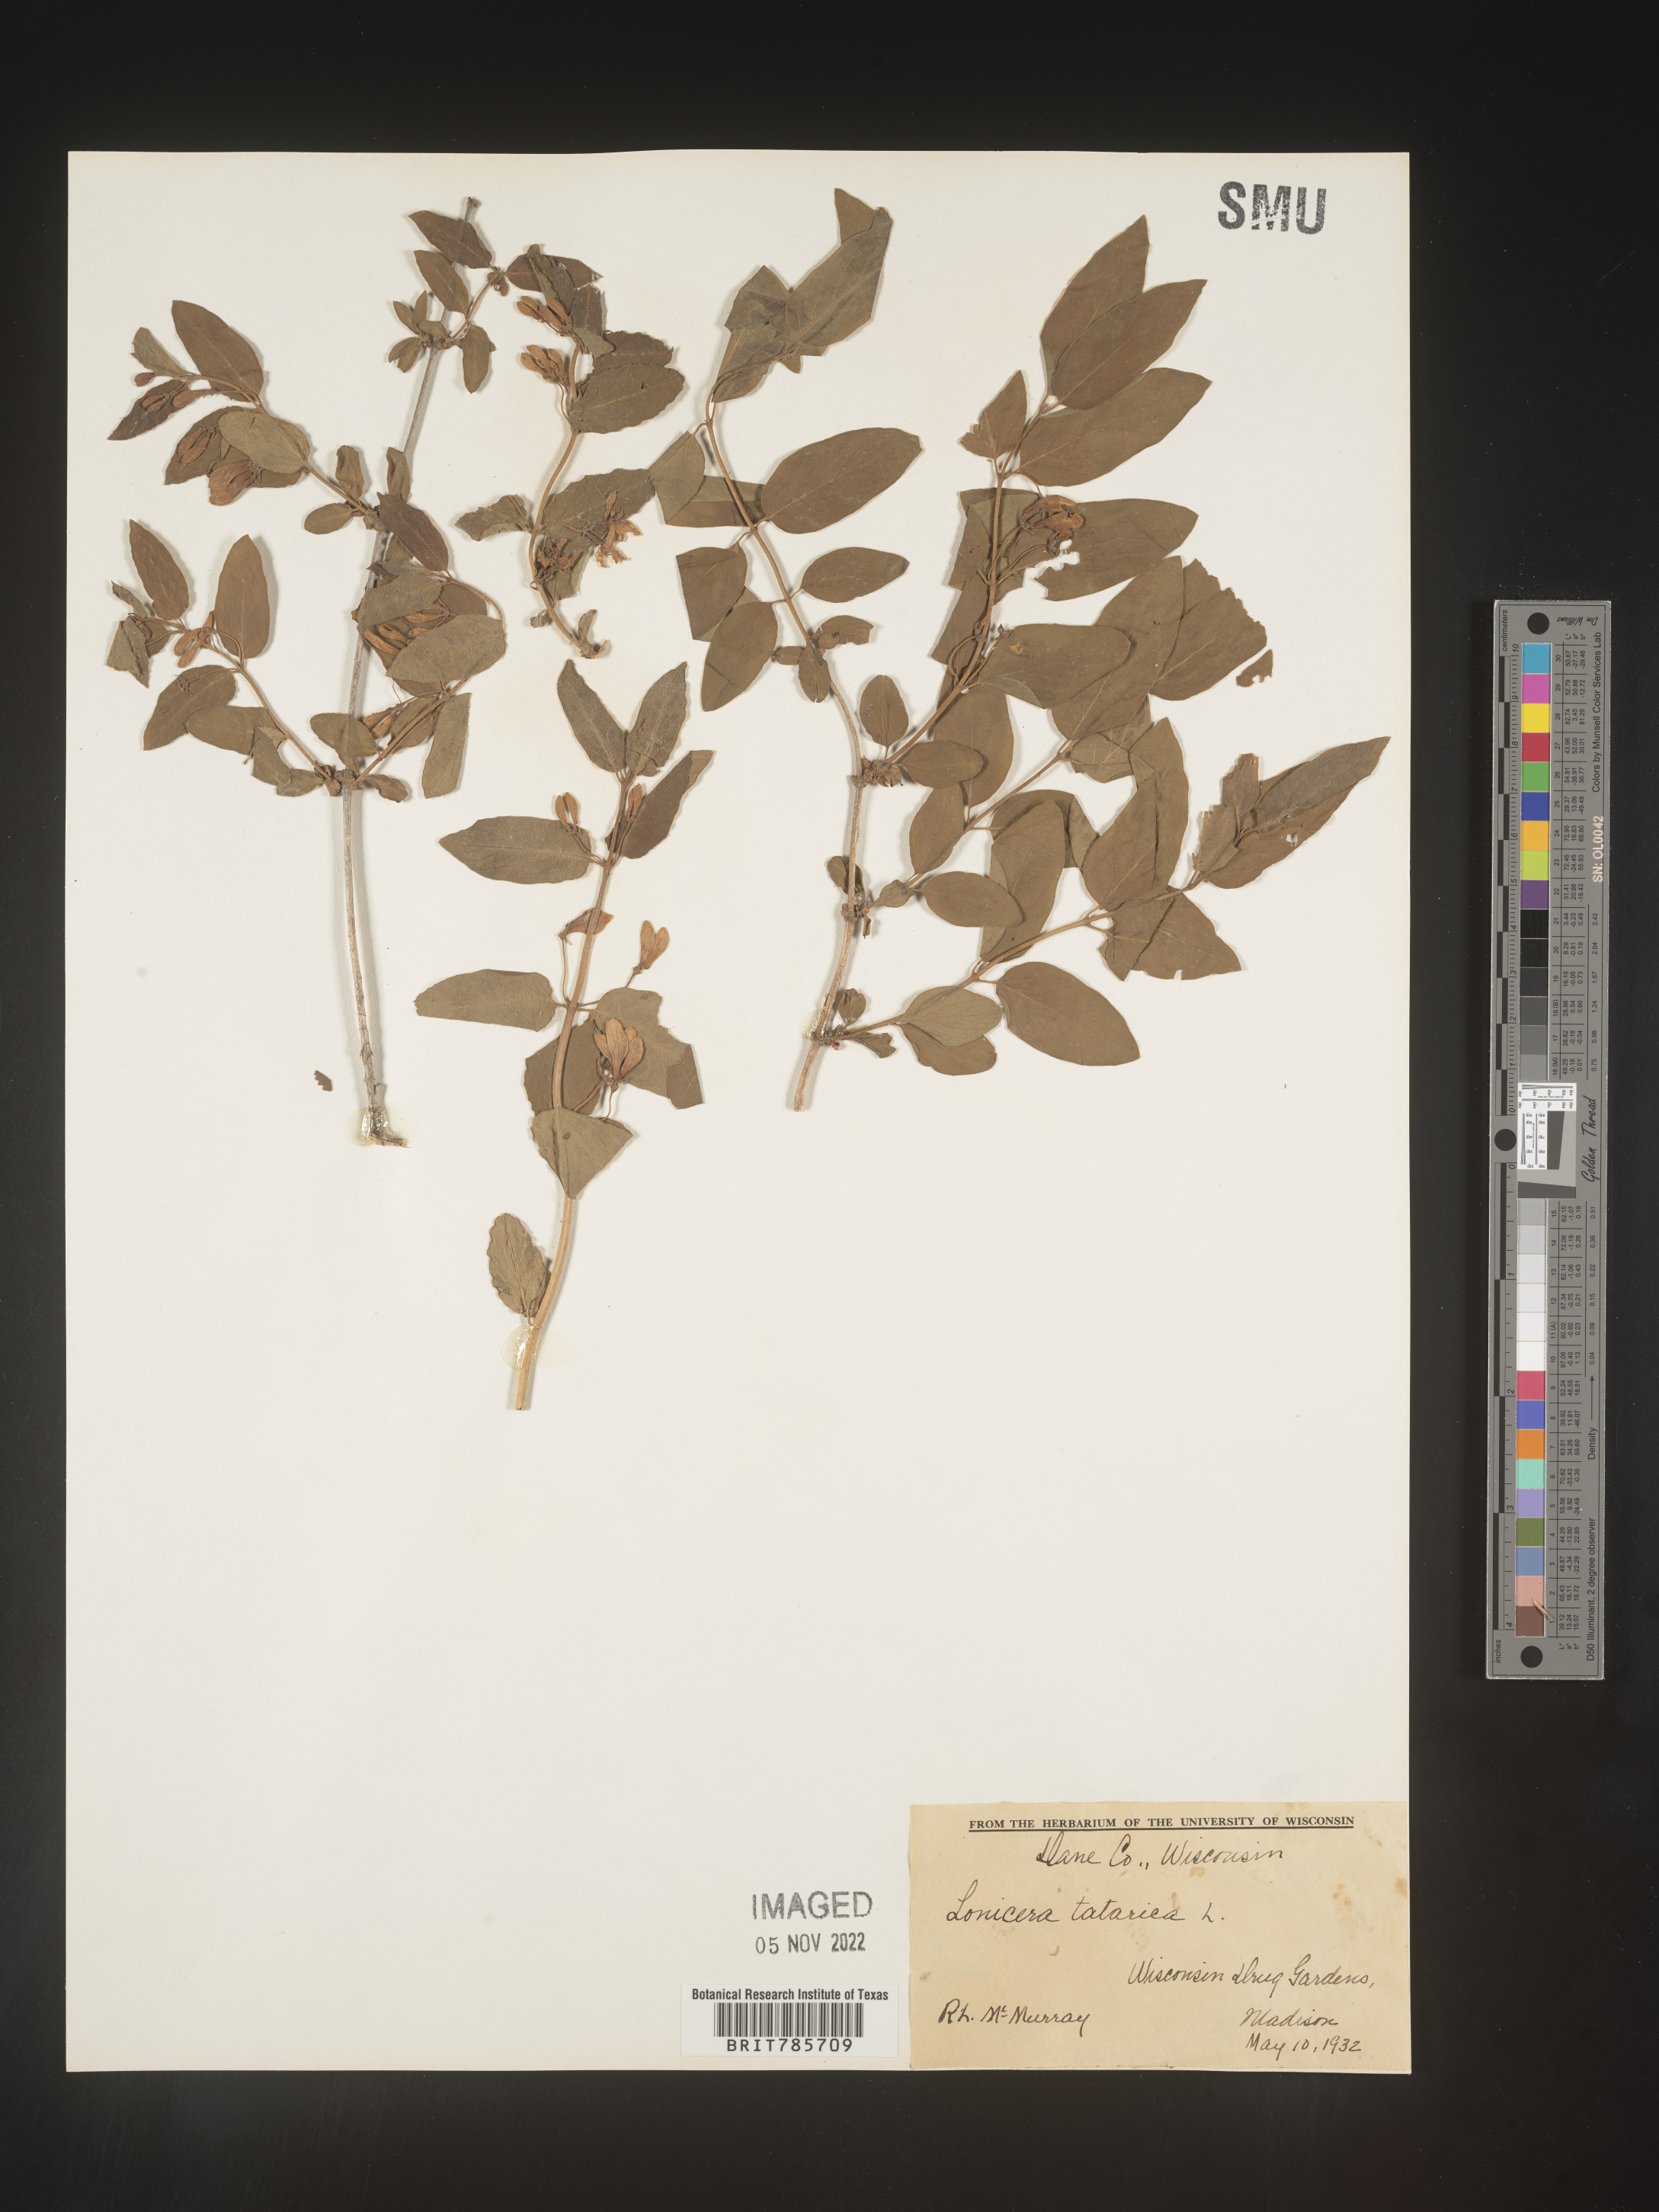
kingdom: Plantae
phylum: Tracheophyta
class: Magnoliopsida
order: Dipsacales
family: Caprifoliaceae
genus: Lonicera
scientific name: Lonicera
